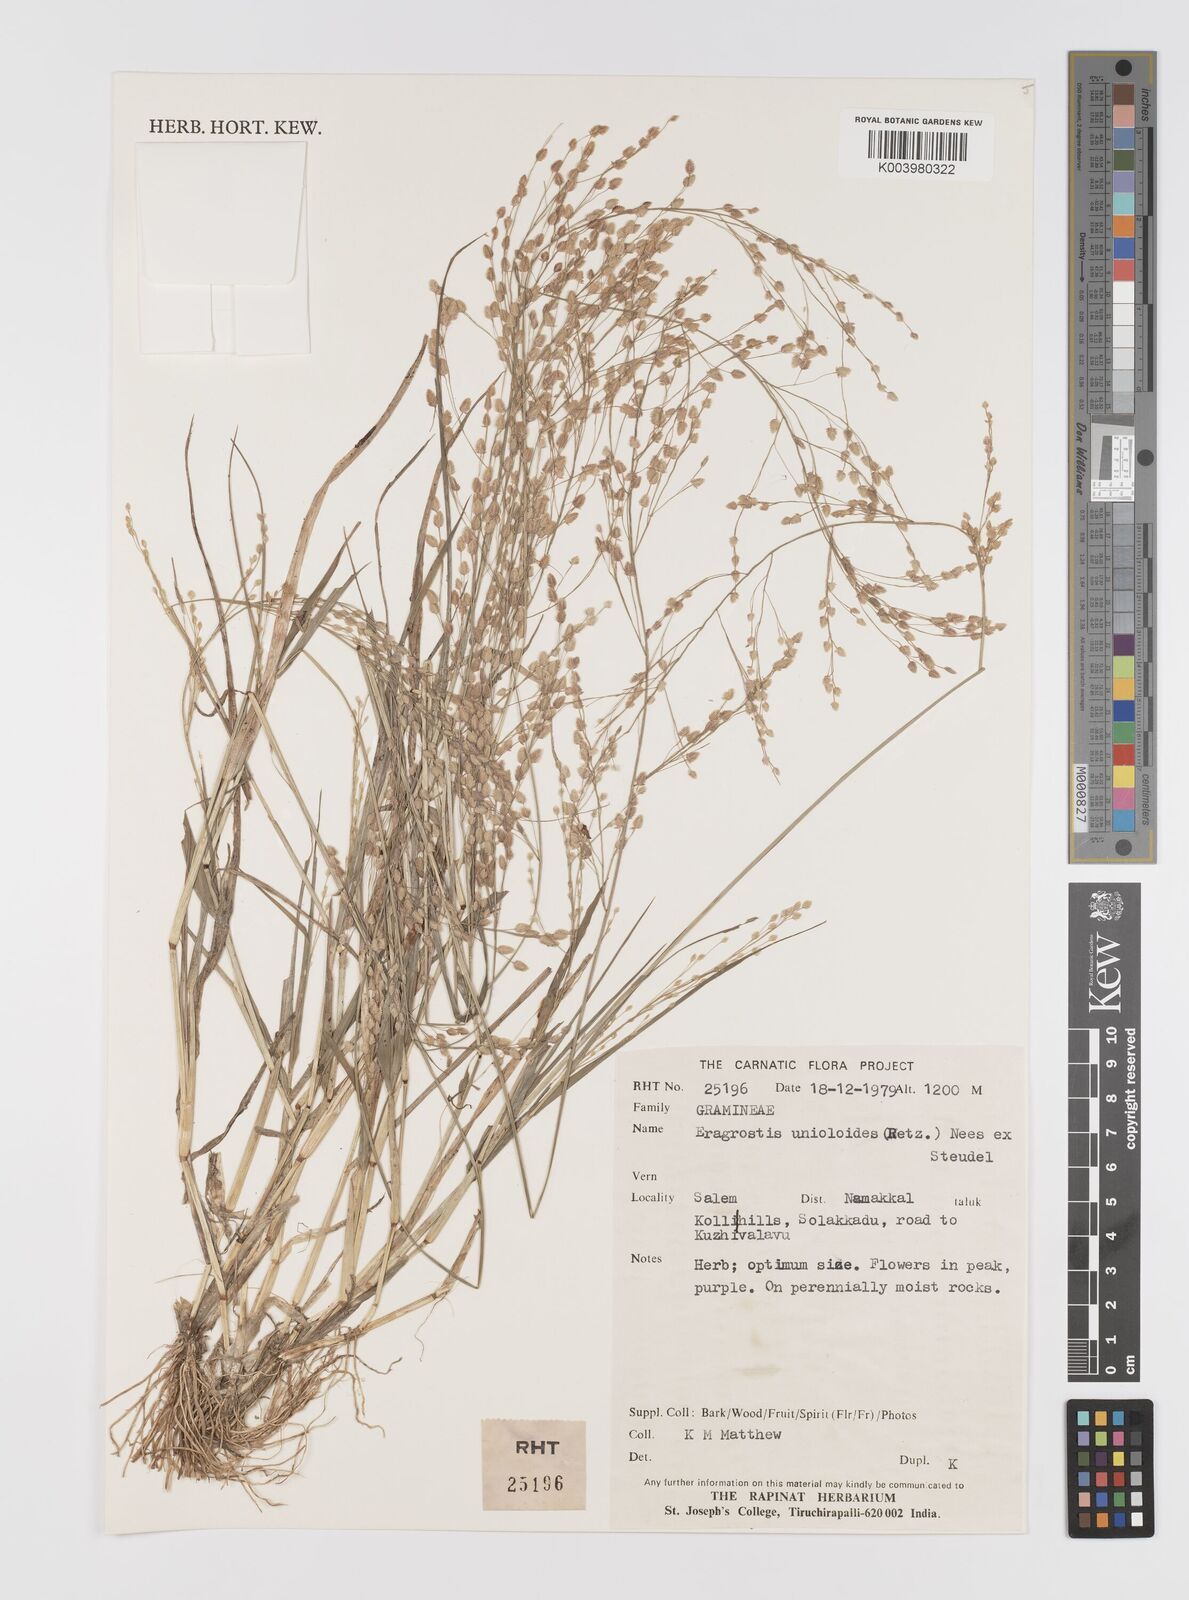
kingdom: Plantae
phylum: Tracheophyta
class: Liliopsida
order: Poales
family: Poaceae
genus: Eragrostis
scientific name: Eragrostis unioloides
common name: Chinese lovegrass
